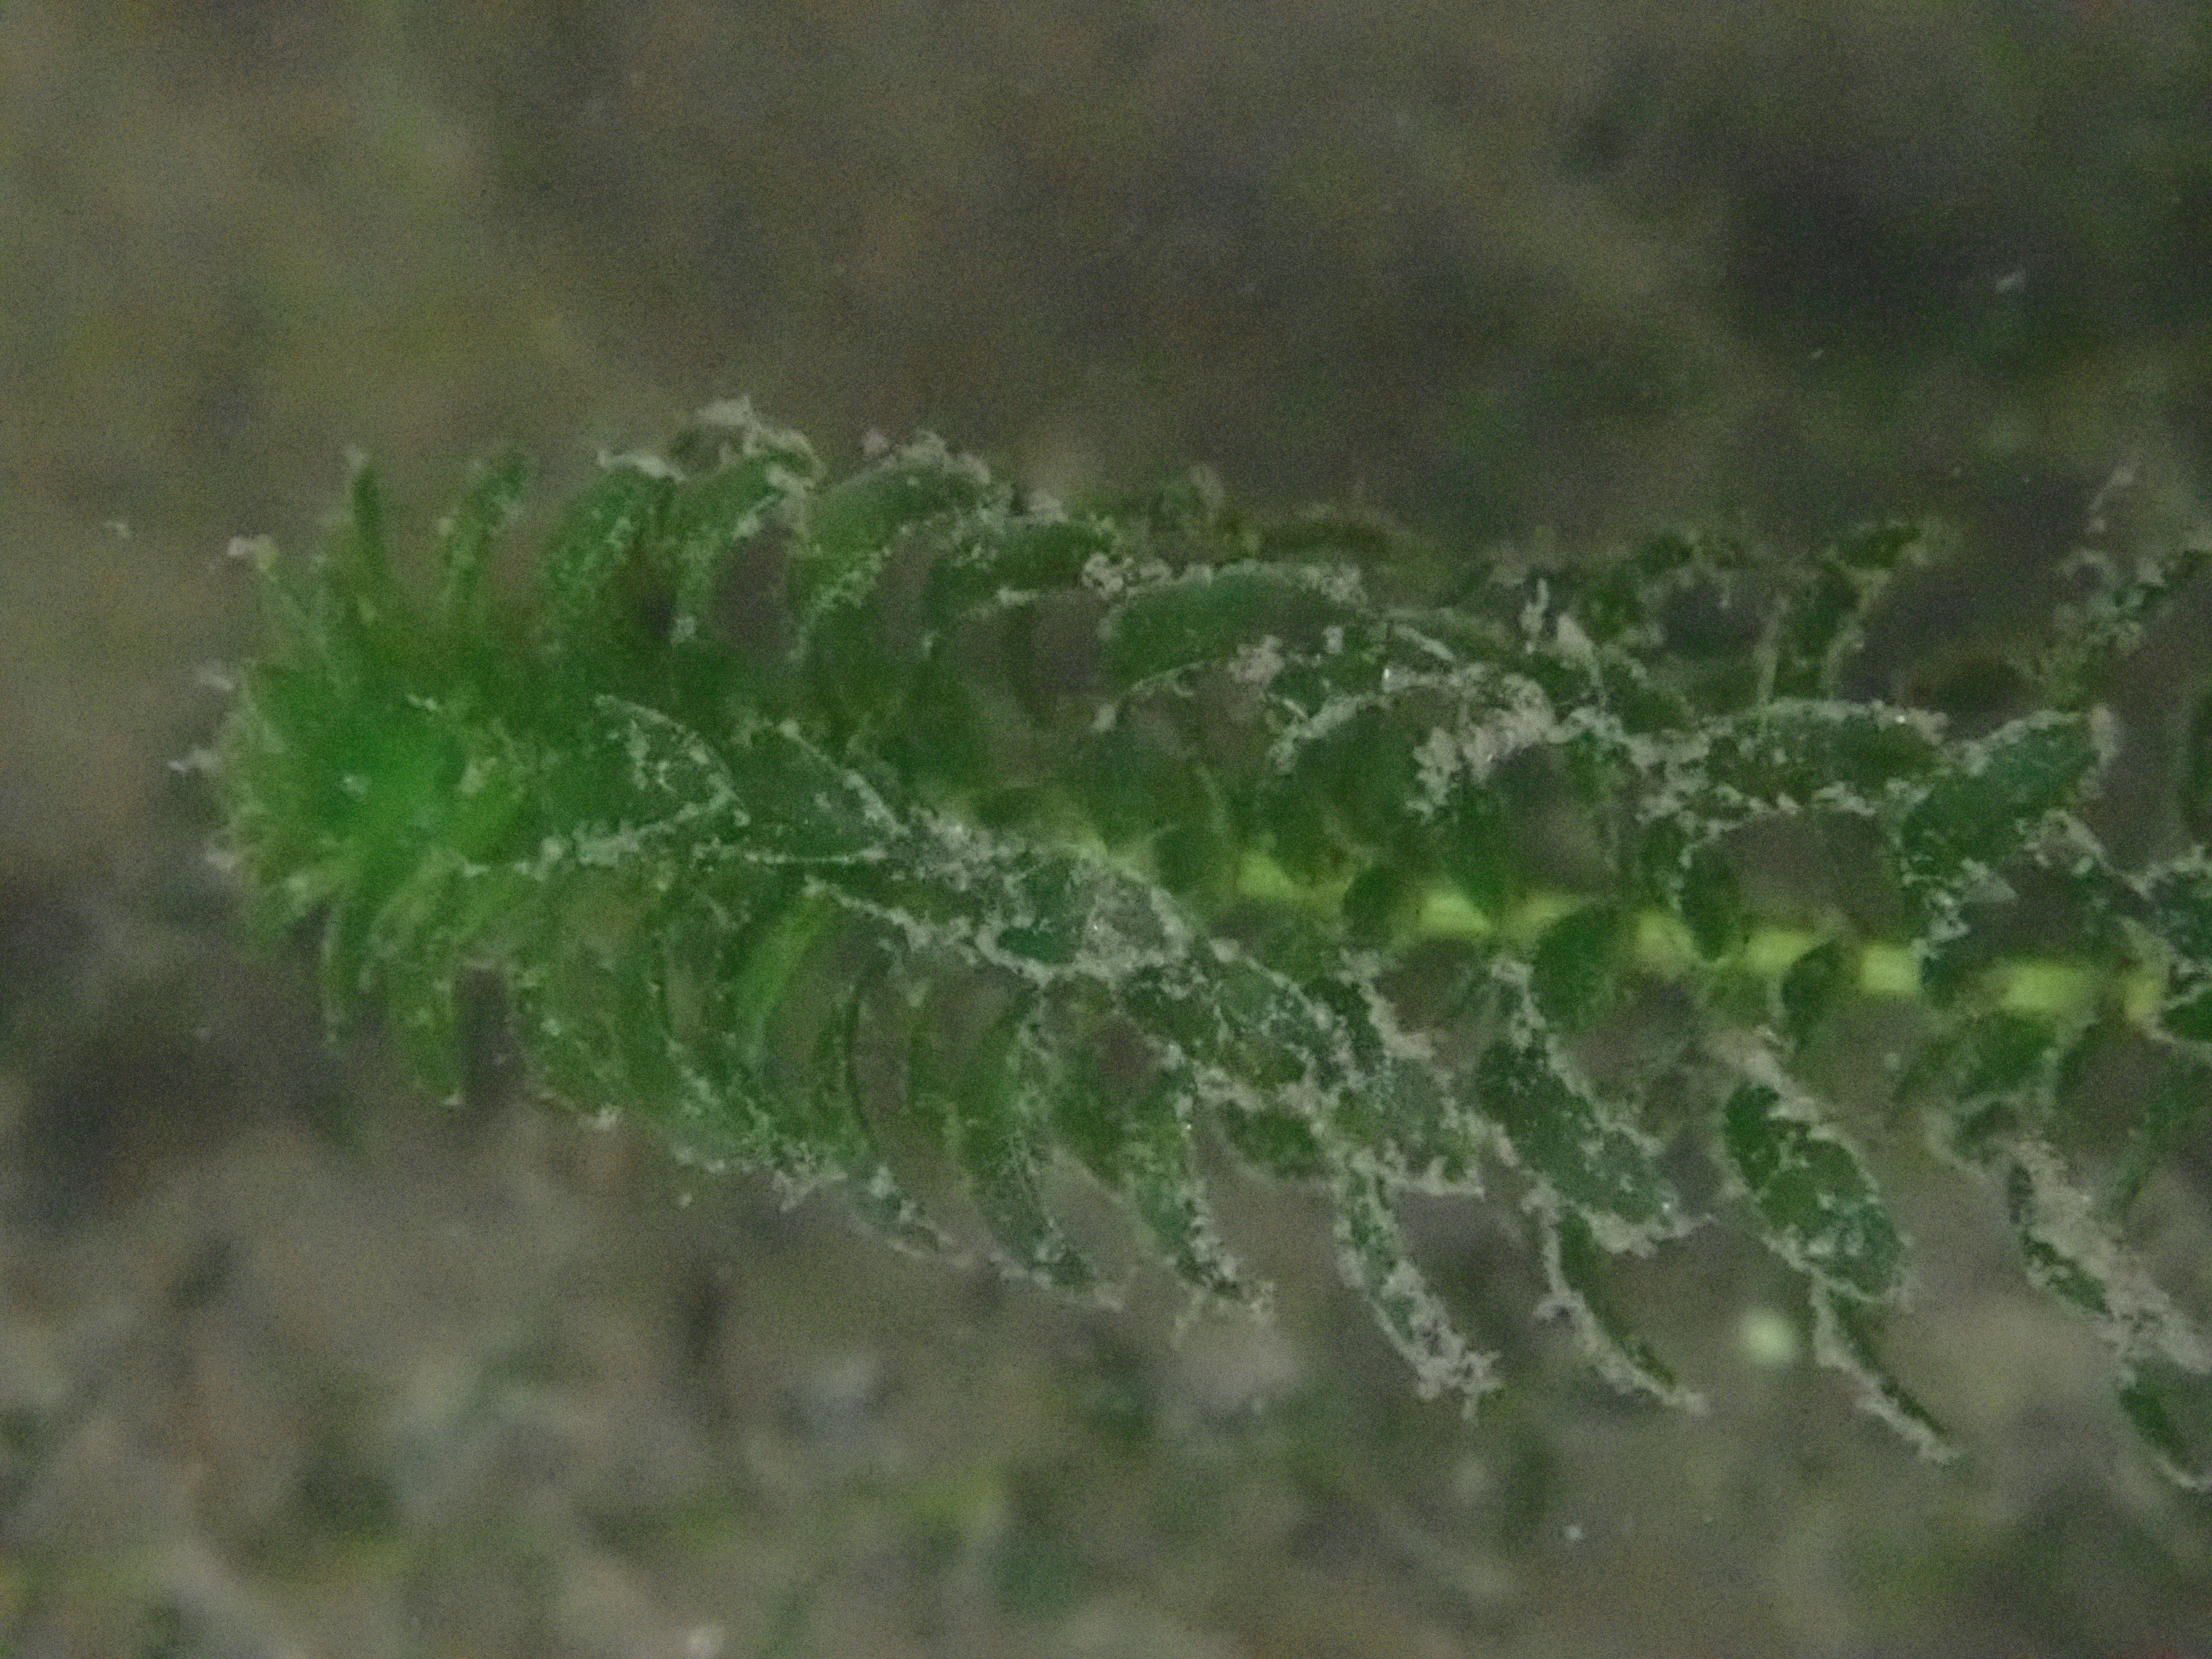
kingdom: Plantae
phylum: Tracheophyta
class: Liliopsida
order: Alismatales
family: Hydrocharitaceae
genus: Elodea
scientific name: Elodea canadensis
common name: Canadian waterweed
